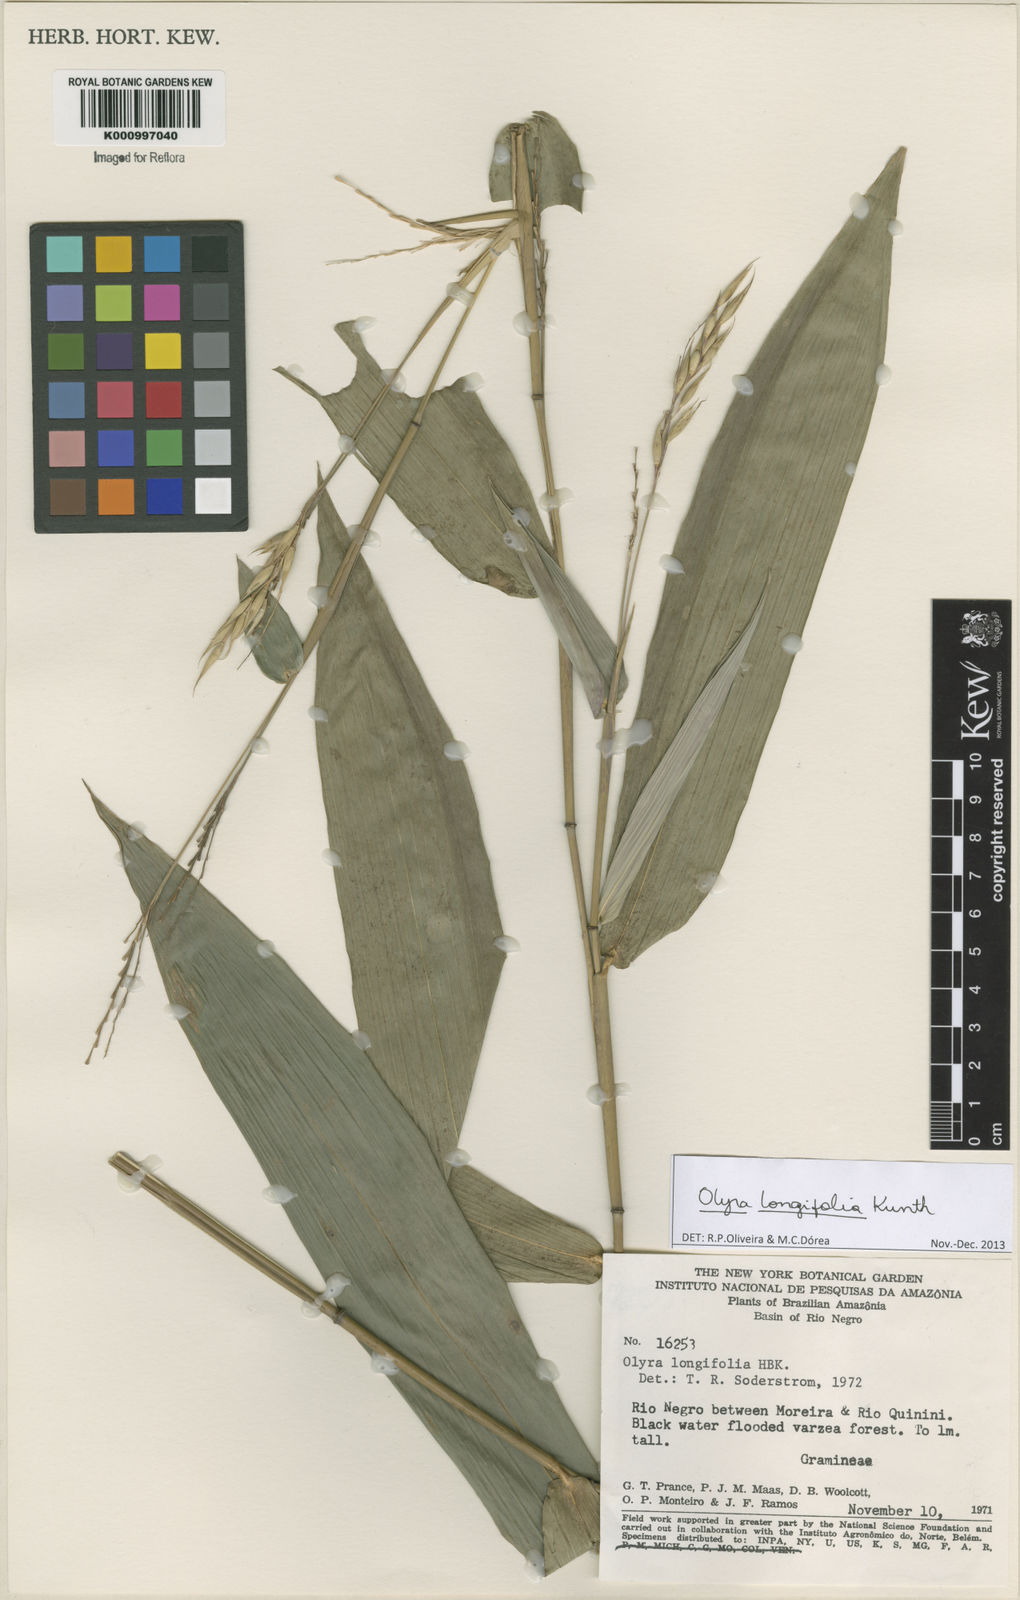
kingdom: Plantae
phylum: Tracheophyta
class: Liliopsida
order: Poales
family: Poaceae
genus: Olyra
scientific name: Olyra longifolia
